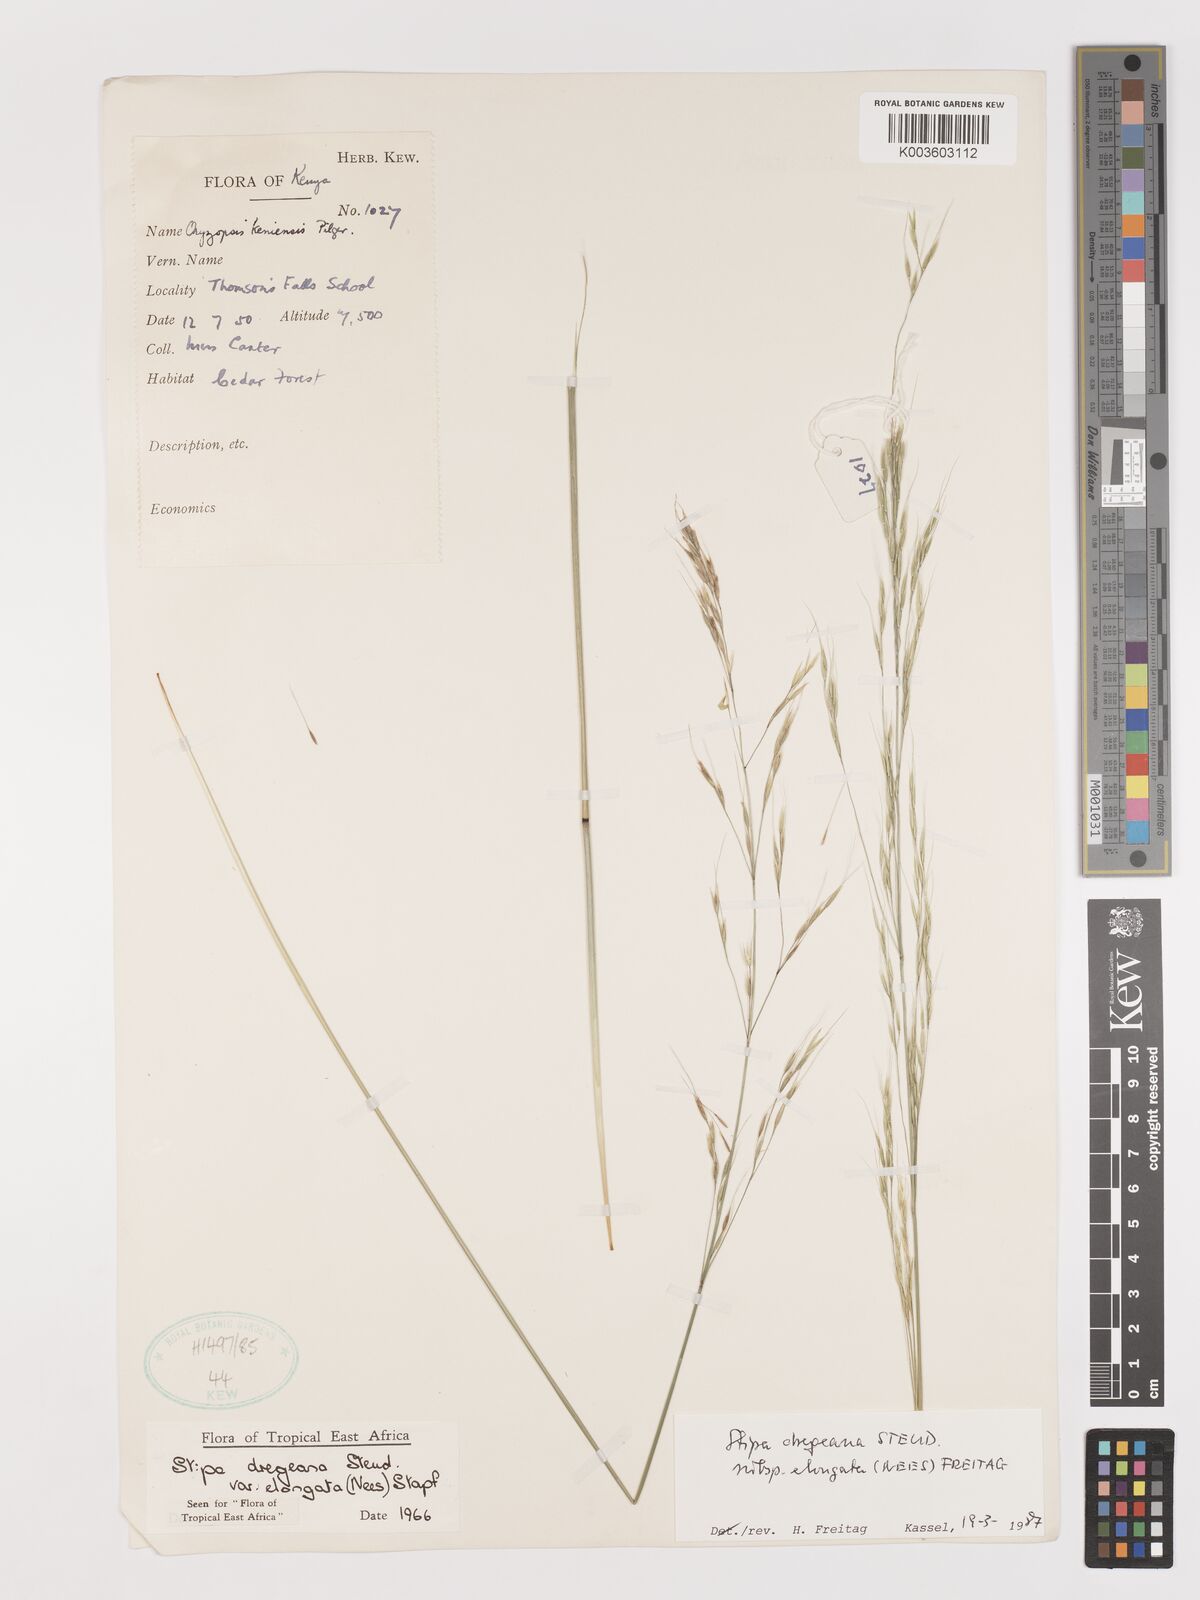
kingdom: Plantae
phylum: Tracheophyta
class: Liliopsida
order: Poales
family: Poaceae
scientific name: Poaceae
